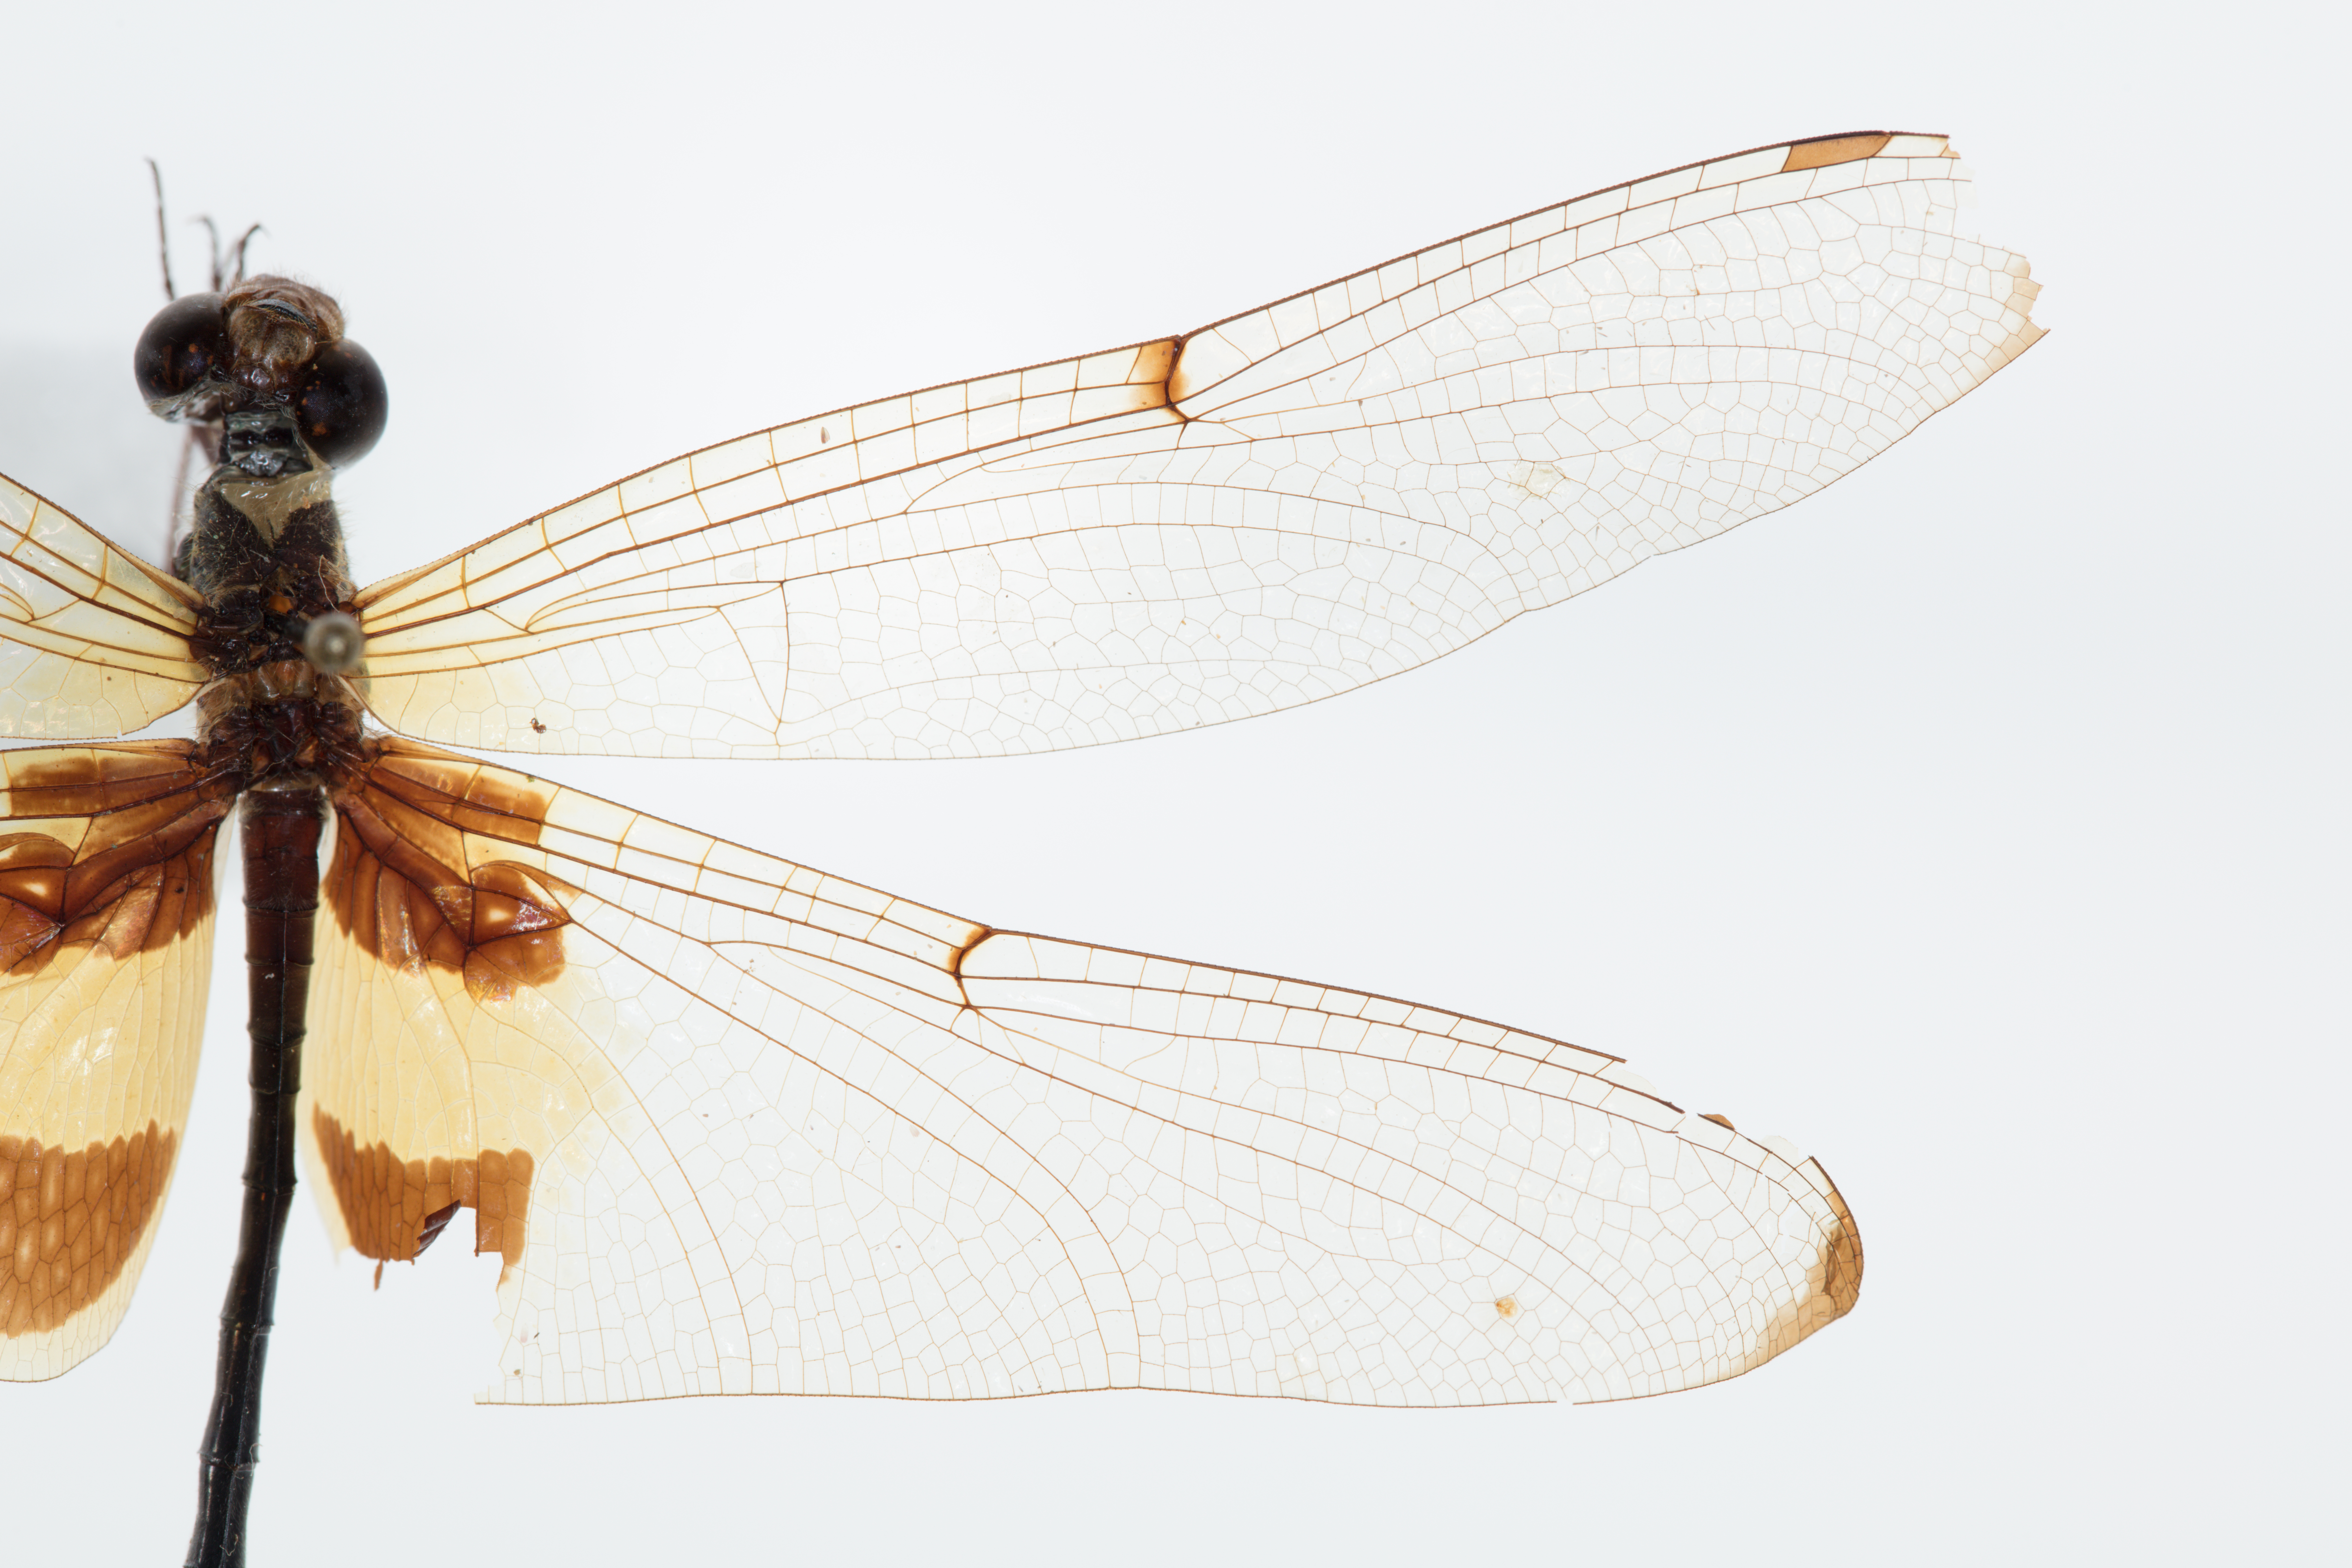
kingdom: Animalia
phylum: Arthropoda
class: Insecta
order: Odonata
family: Libellulidae
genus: Rhyothemis
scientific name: Rhyothemis phyllis
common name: Yellow-barred flutterer
